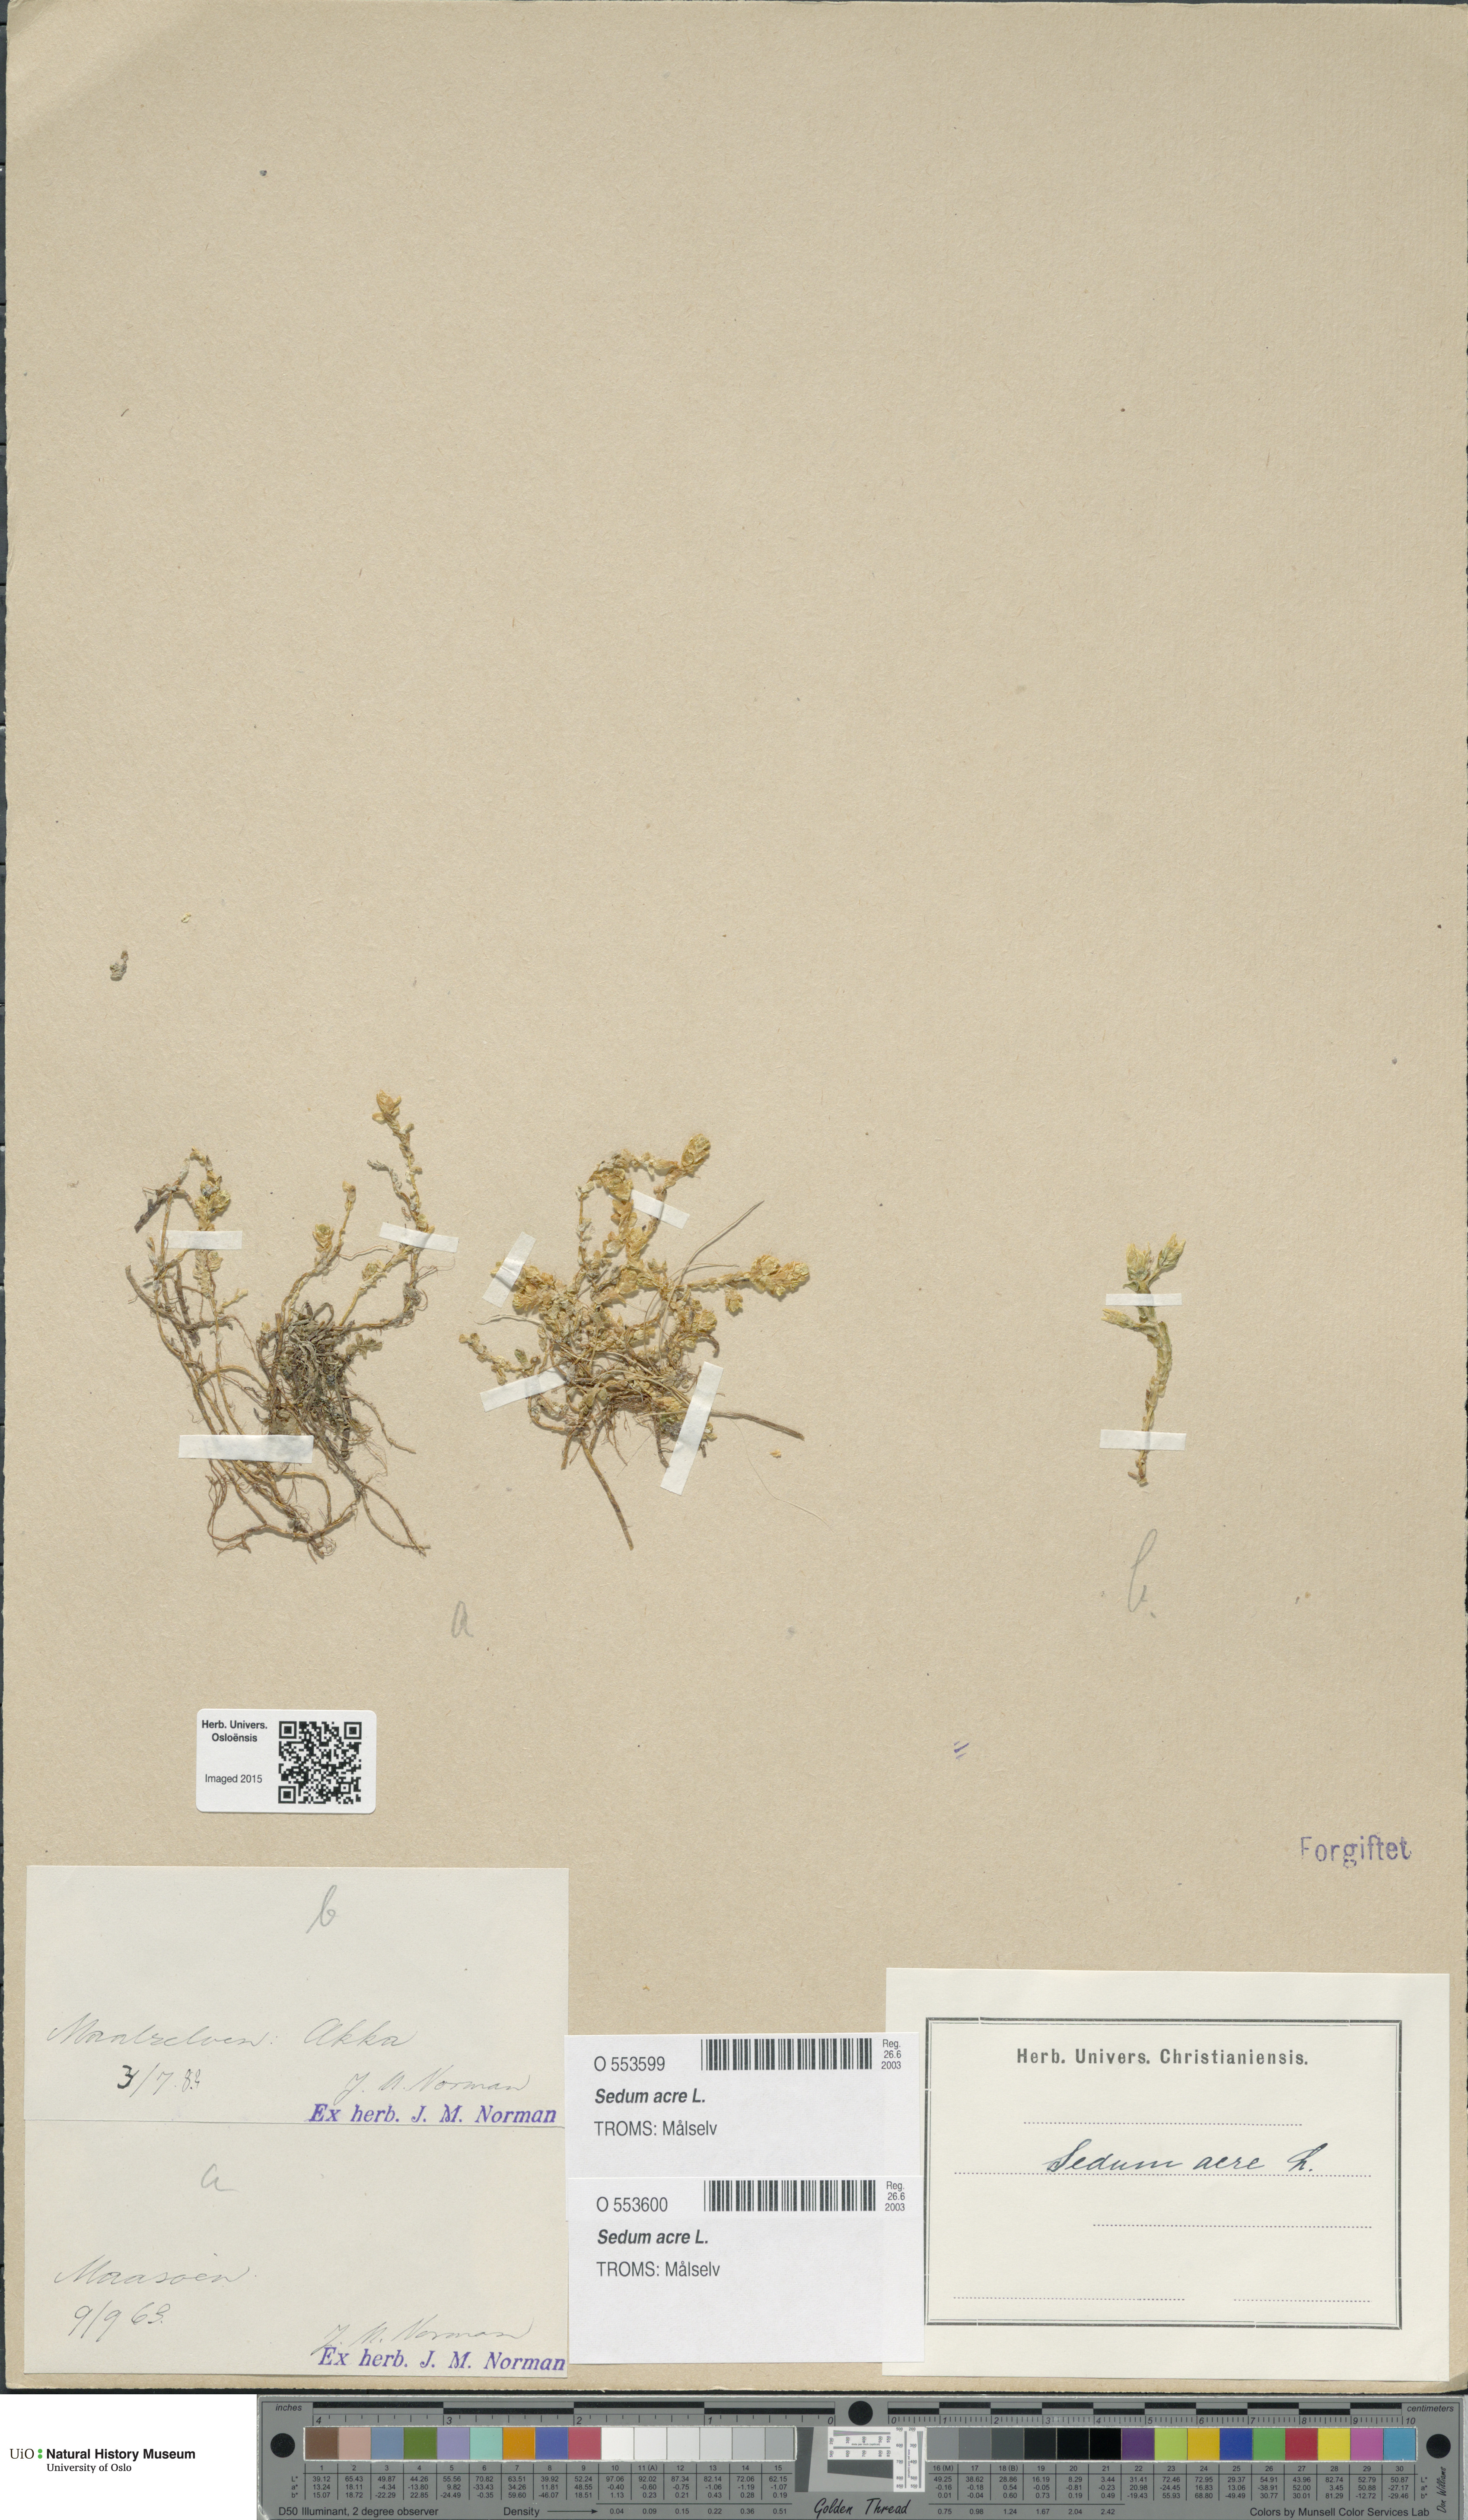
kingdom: Plantae
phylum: Tracheophyta
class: Magnoliopsida
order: Saxifragales
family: Crassulaceae
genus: Sedum
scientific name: Sedum acre
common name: Biting stonecrop
